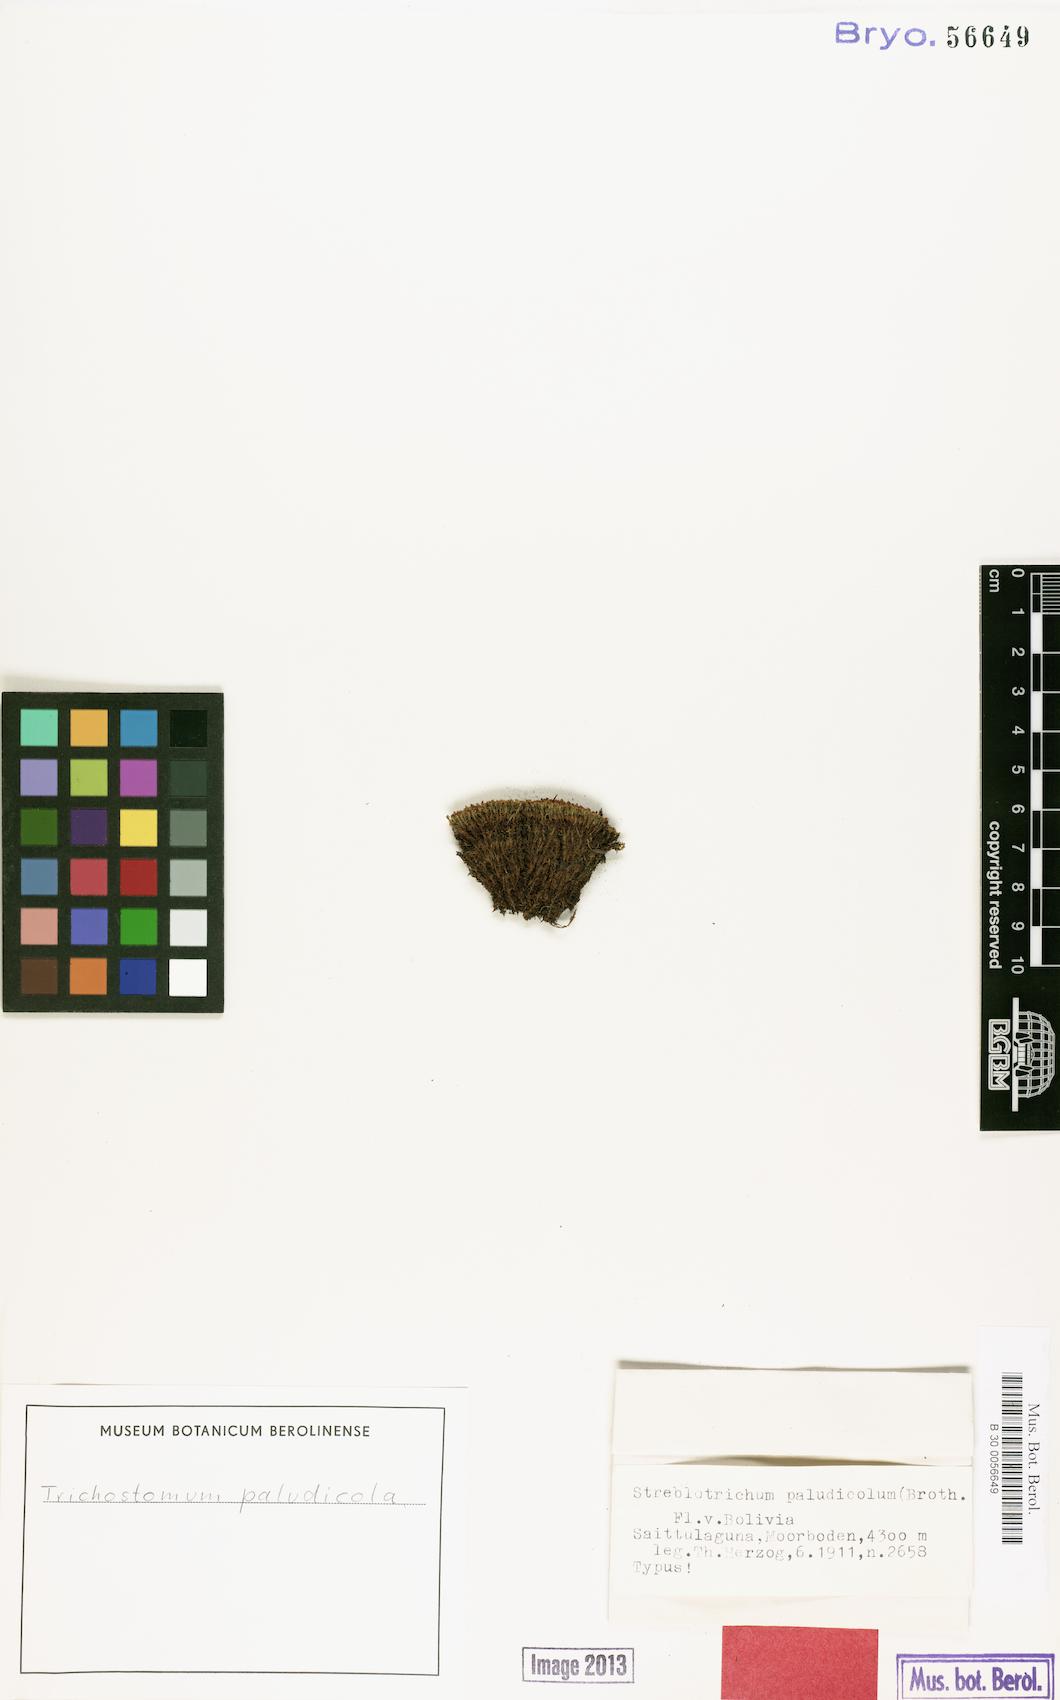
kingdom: Plantae
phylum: Bryophyta
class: Bryopsida
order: Pottiales
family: Pottiaceae
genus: Trichostomum
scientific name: Trichostomum paludicola
